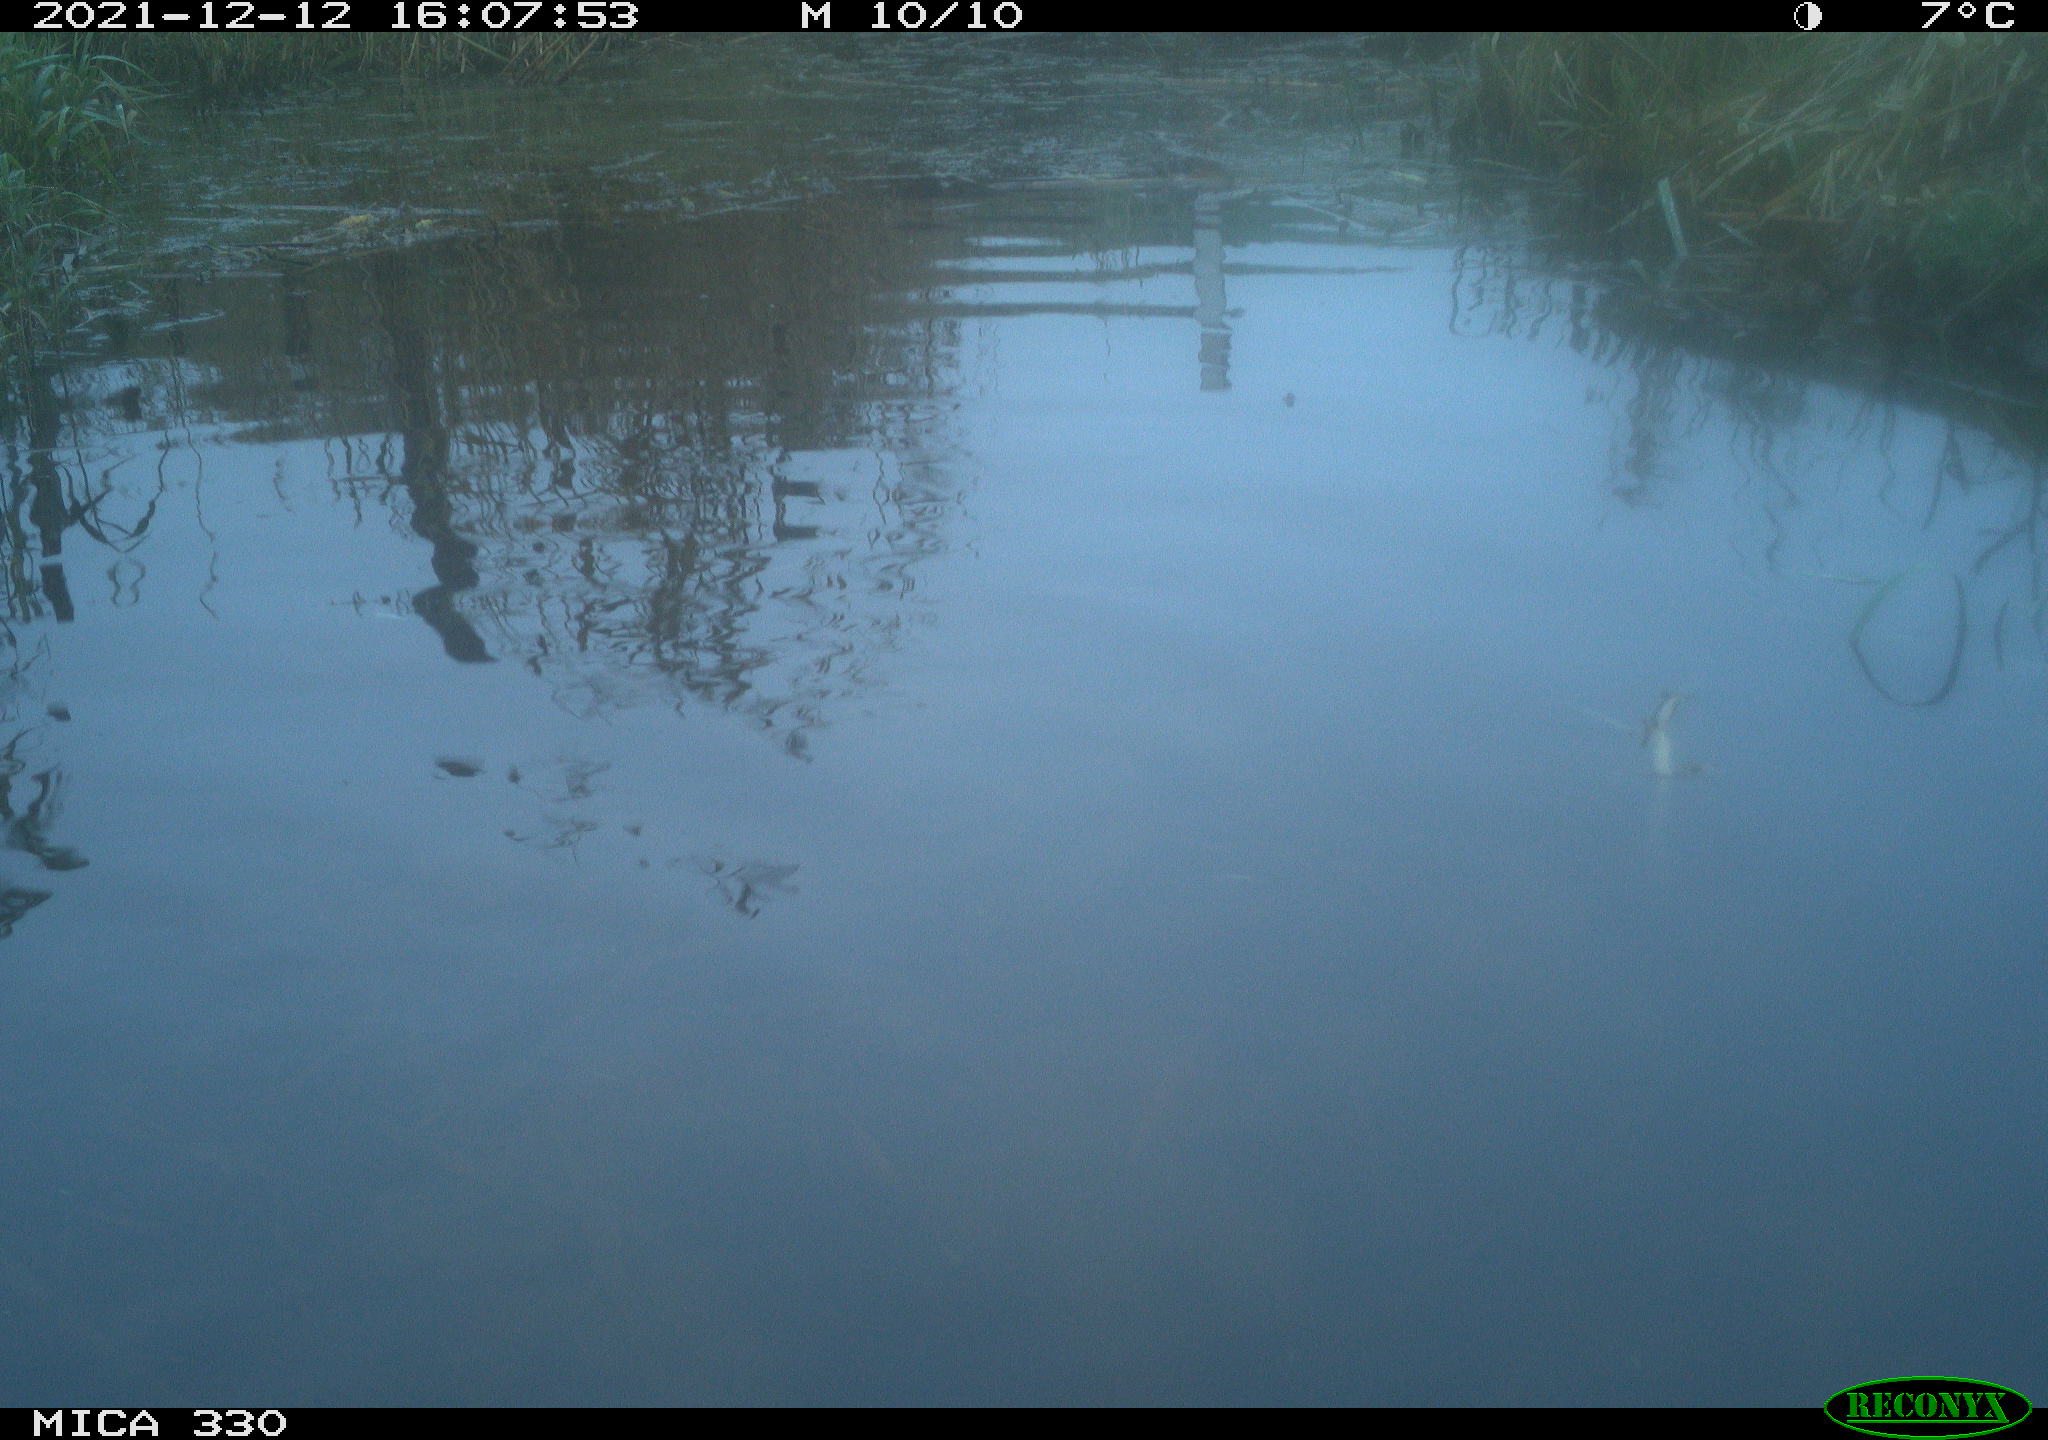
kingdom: Animalia
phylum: Chordata
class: Aves
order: Anseriformes
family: Anatidae
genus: Anas
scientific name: Anas platyrhynchos
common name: Mallard
